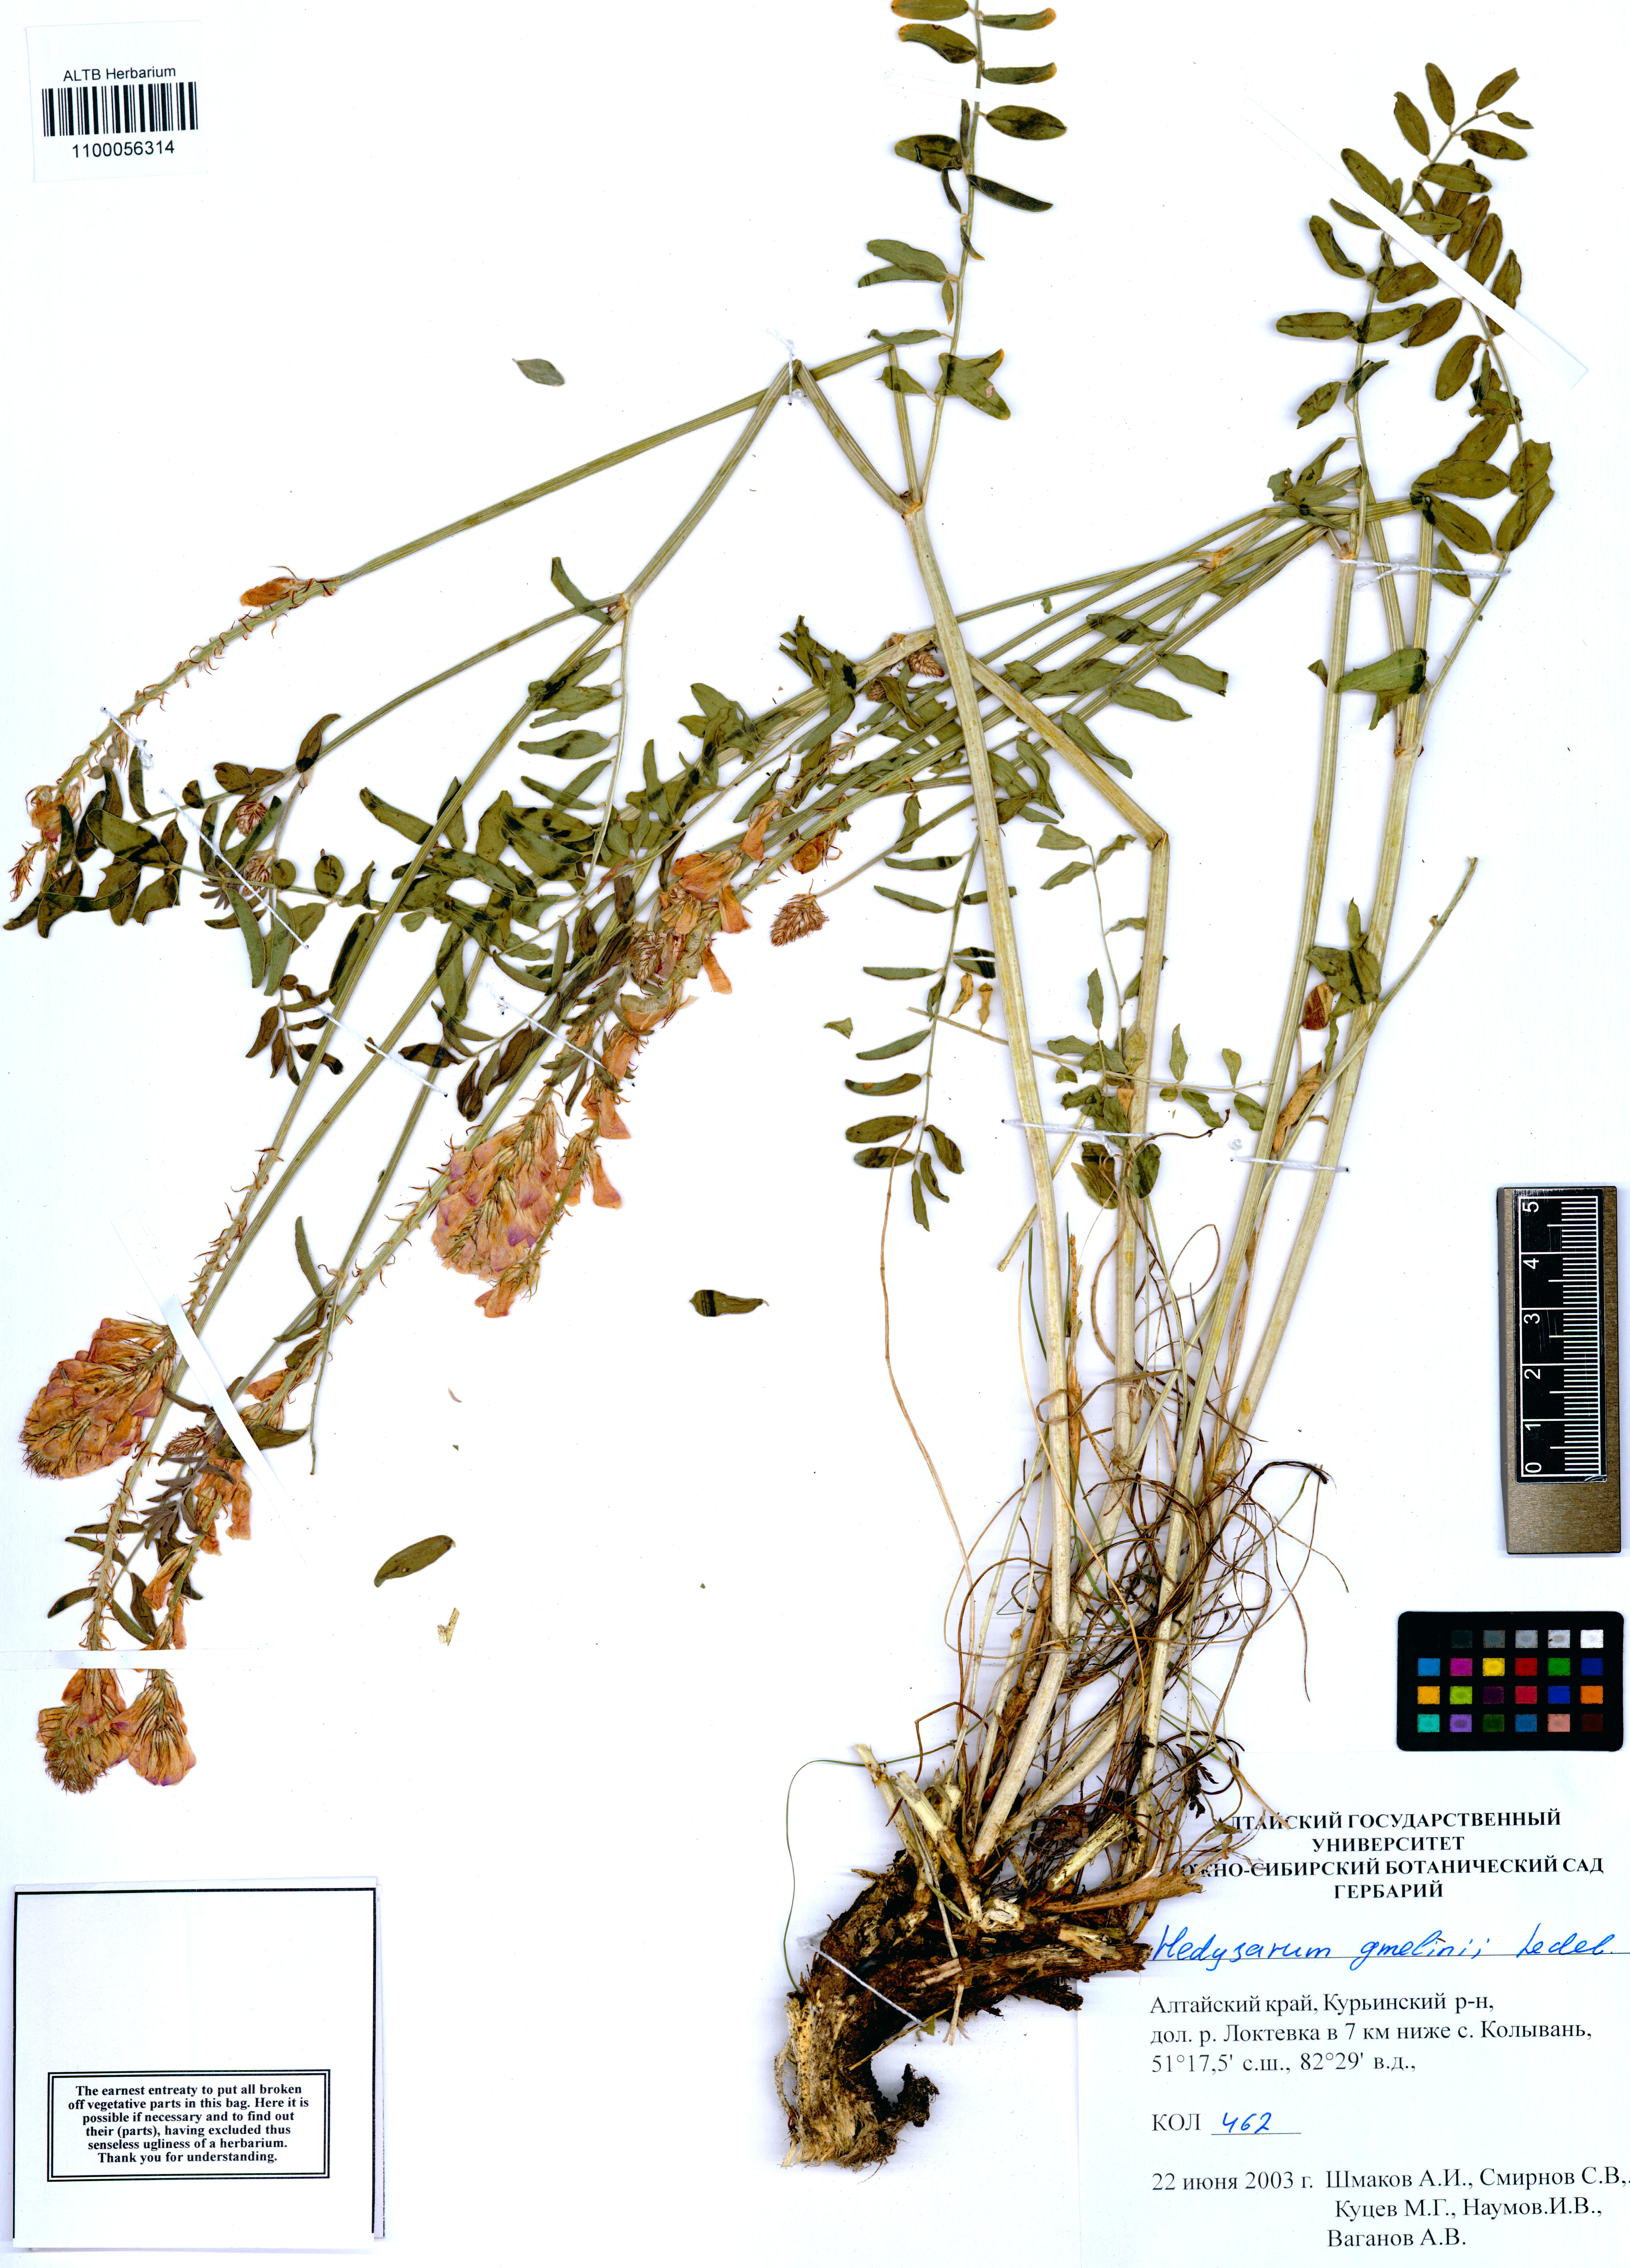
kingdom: Plantae
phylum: Tracheophyta
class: Magnoliopsida
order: Fabales
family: Fabaceae
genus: Hedysarum
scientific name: Hedysarum gmelinii
